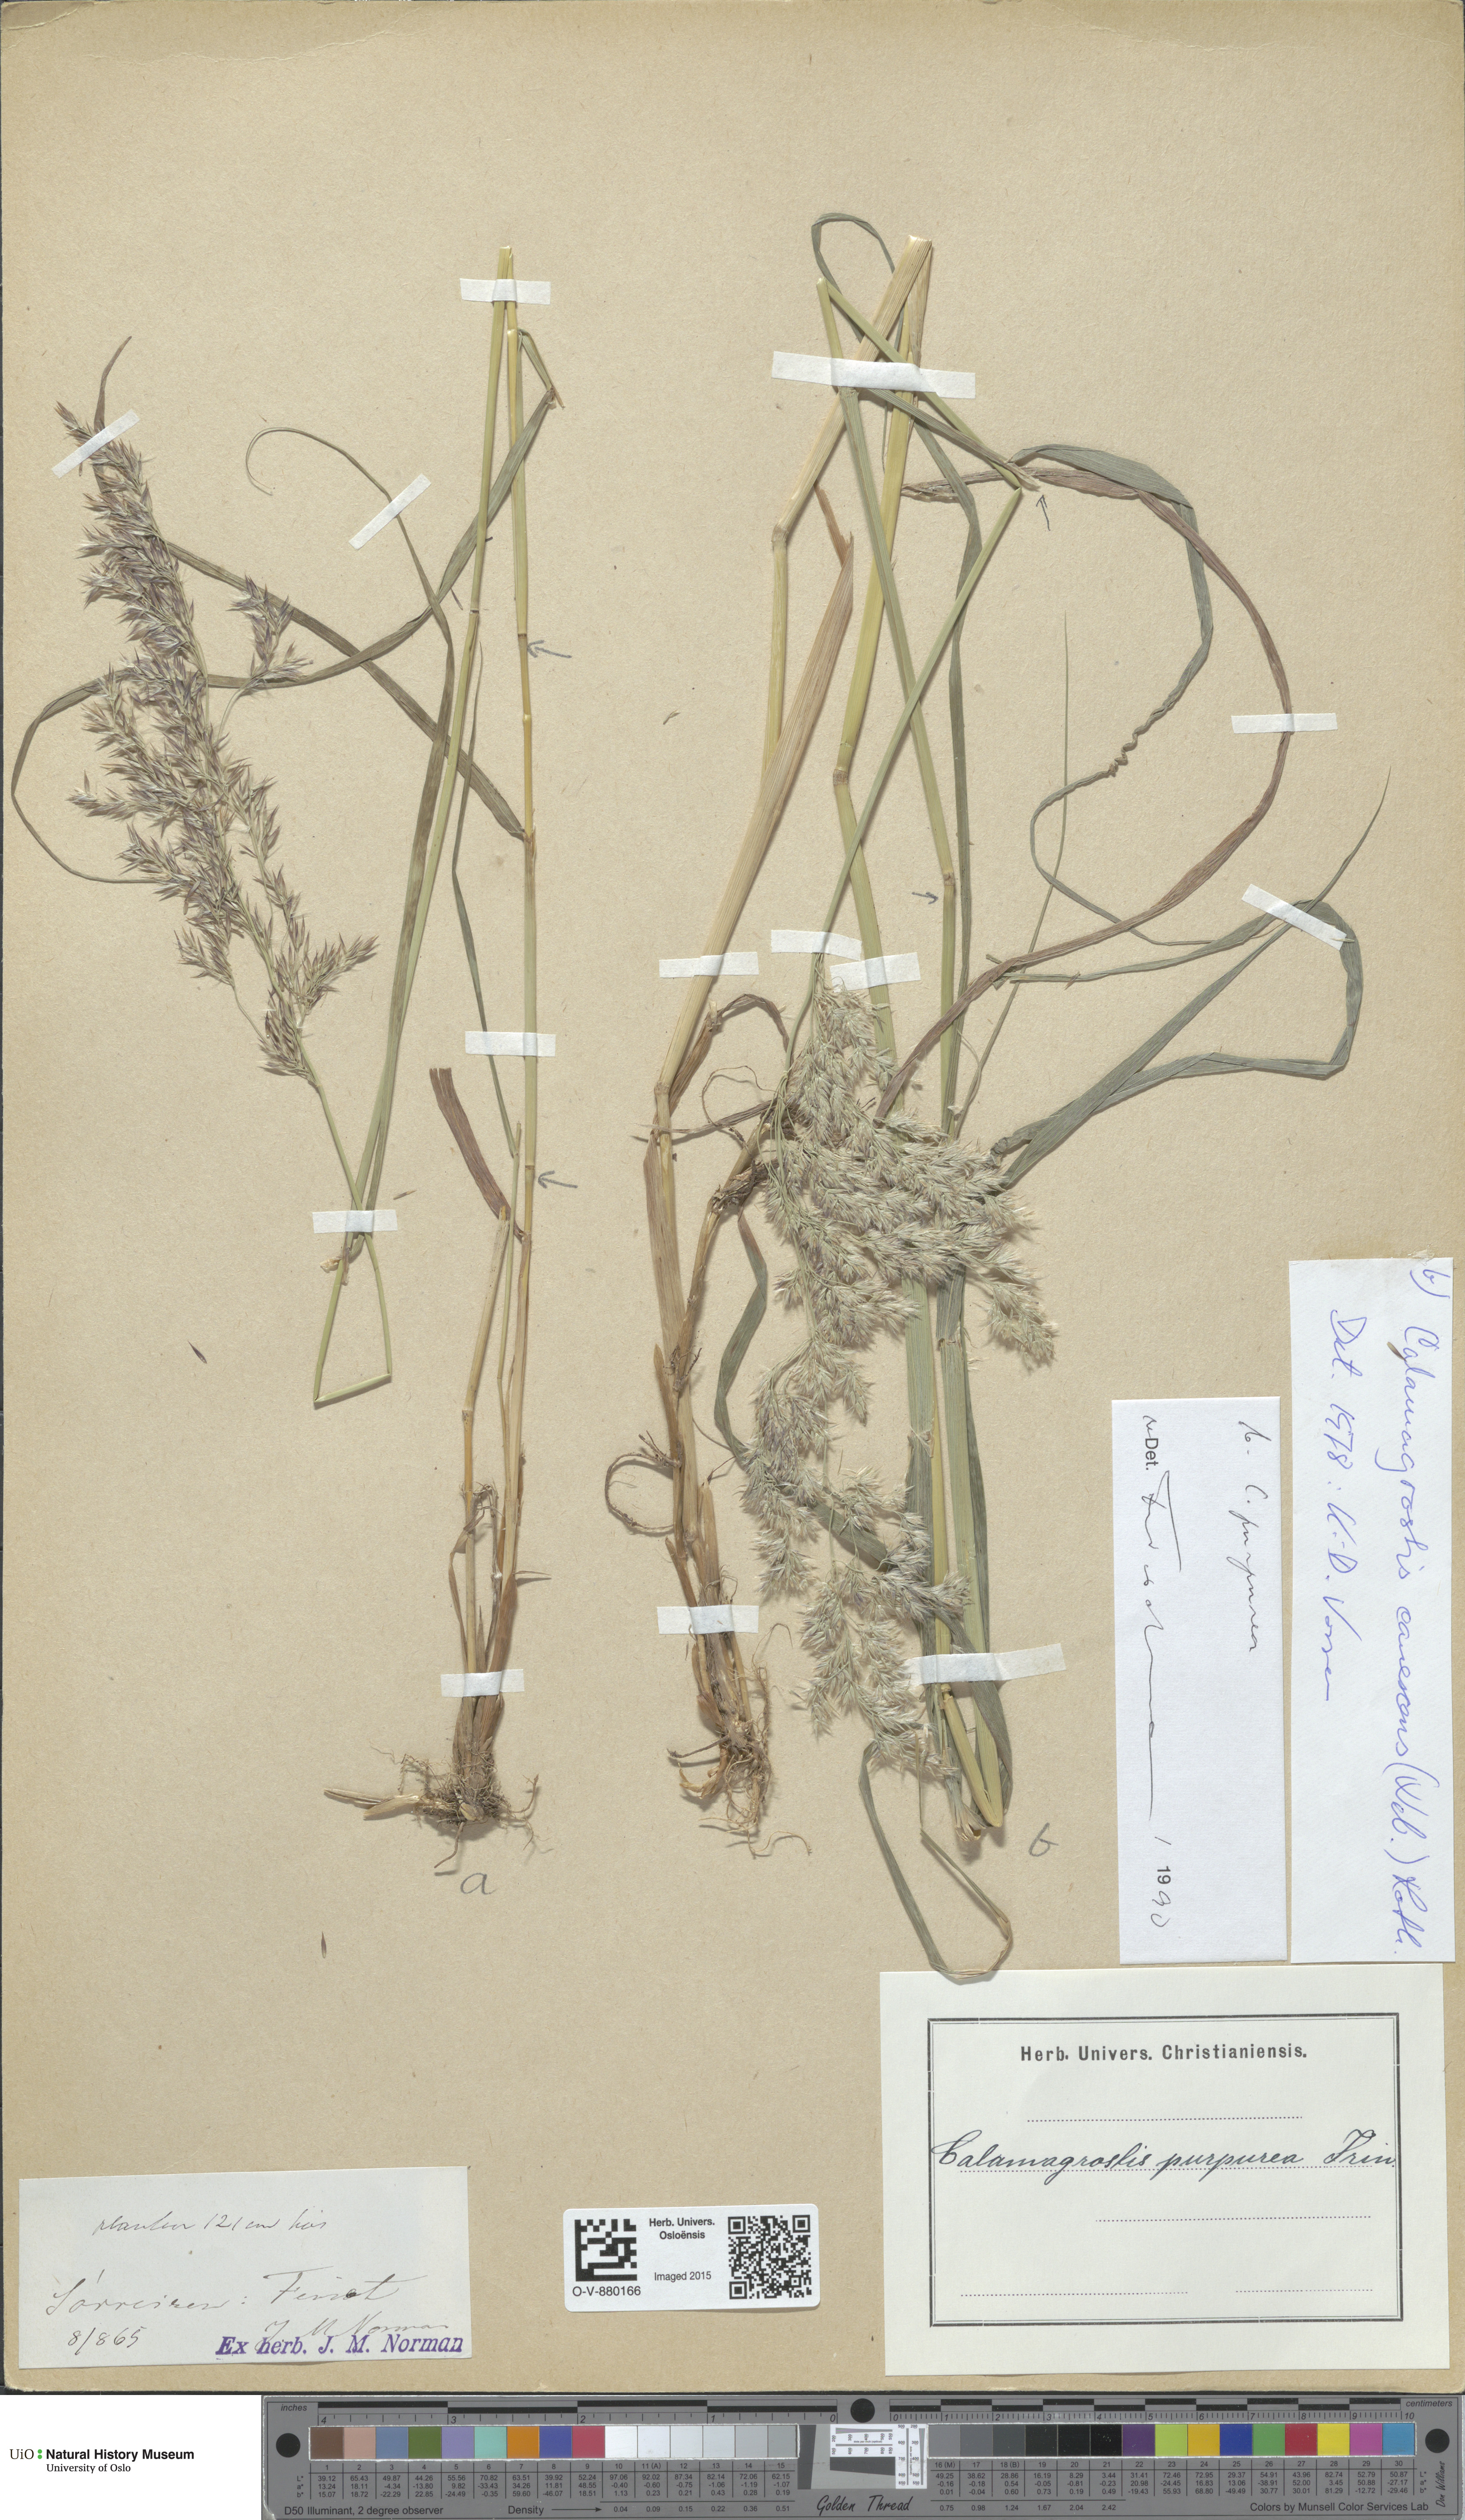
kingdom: Plantae
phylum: Tracheophyta
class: Liliopsida
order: Poales
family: Poaceae
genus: Calamagrostis
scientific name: Calamagrostis purpurea
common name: Scandinavian small-reed
